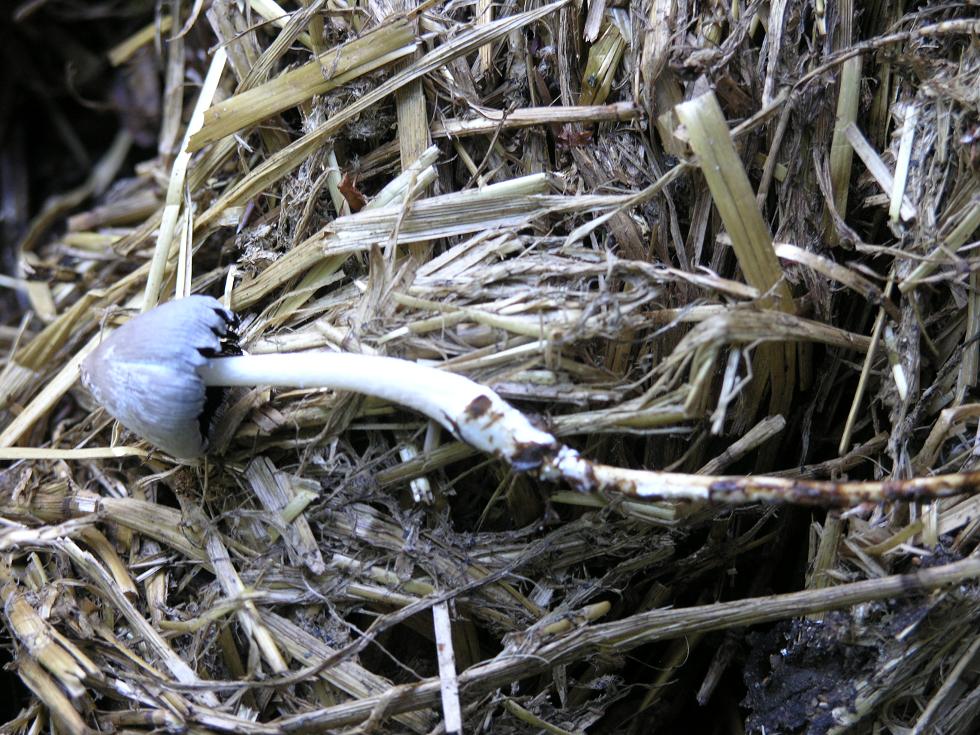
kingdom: Fungi
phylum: Basidiomycota
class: Agaricomycetes
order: Agaricales
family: Psathyrellaceae
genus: Coprinopsis
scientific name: Coprinopsis cinerea
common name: mødding-blækhat
